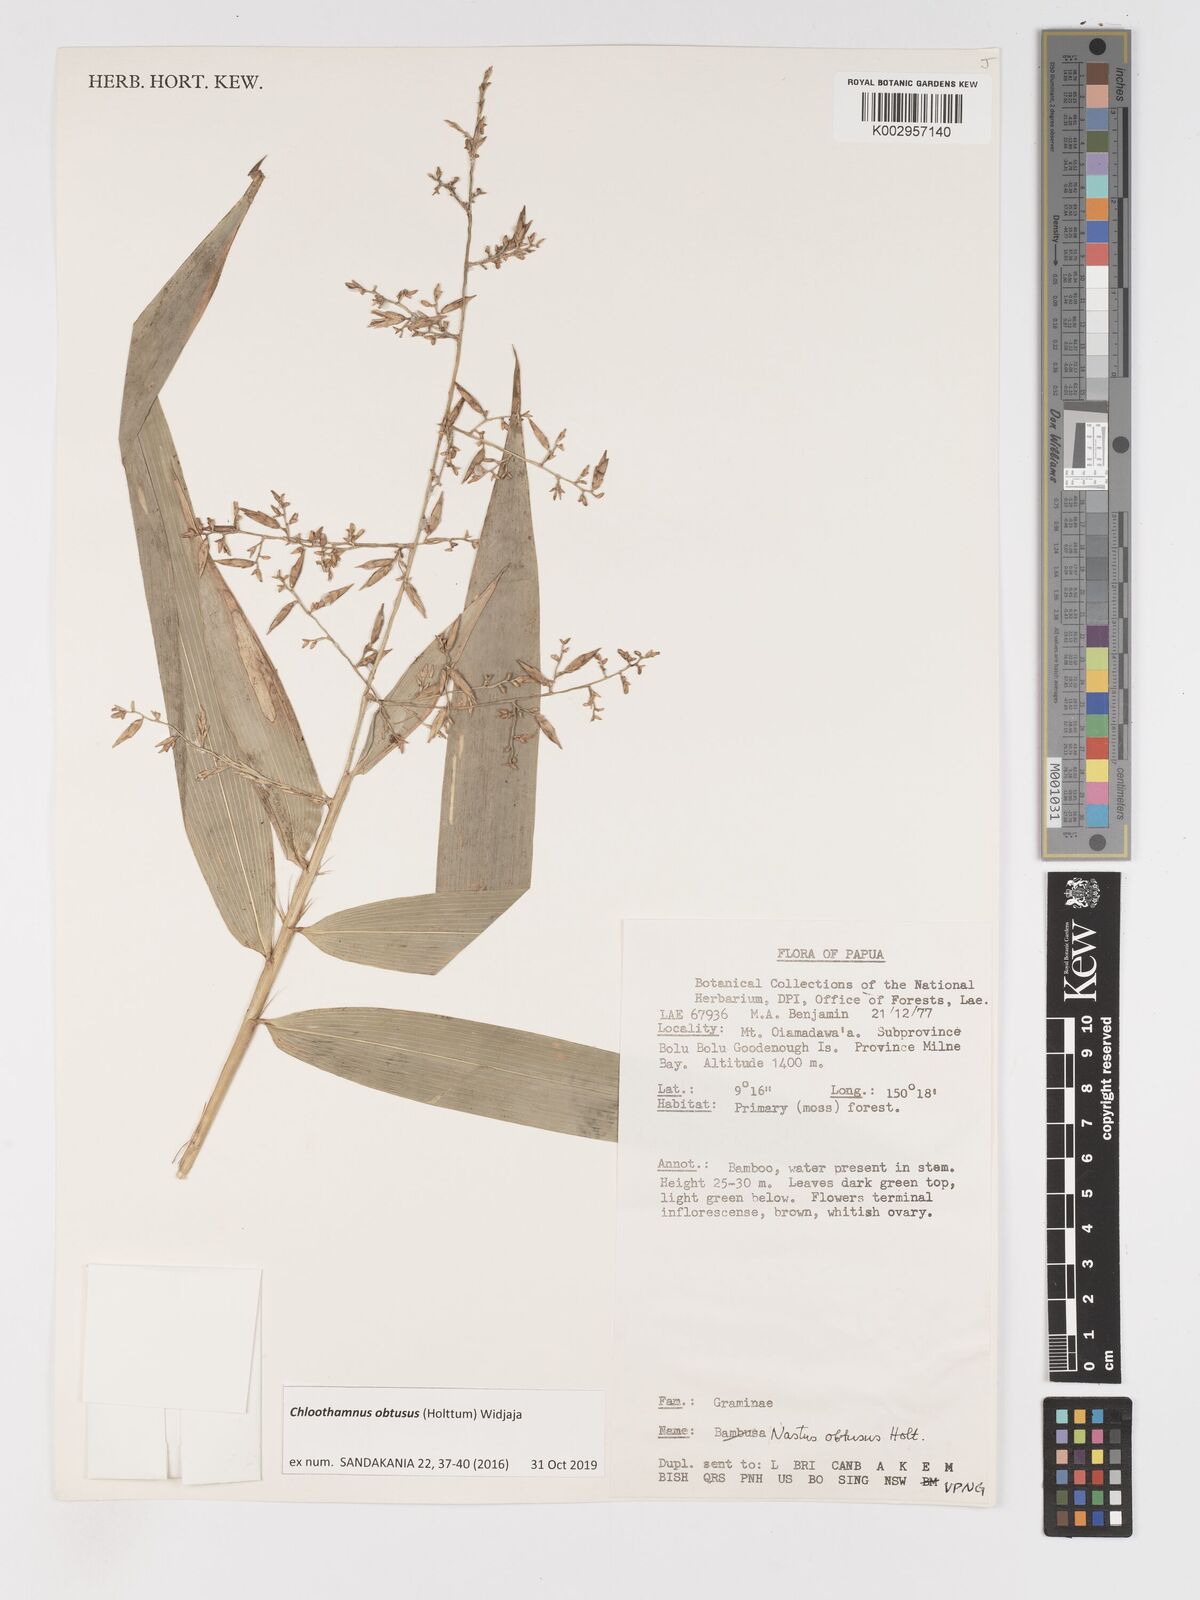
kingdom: Plantae
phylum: Tracheophyta
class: Liliopsida
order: Poales
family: Poaceae
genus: Chloothamnus
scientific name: Chloothamnus obtusus
